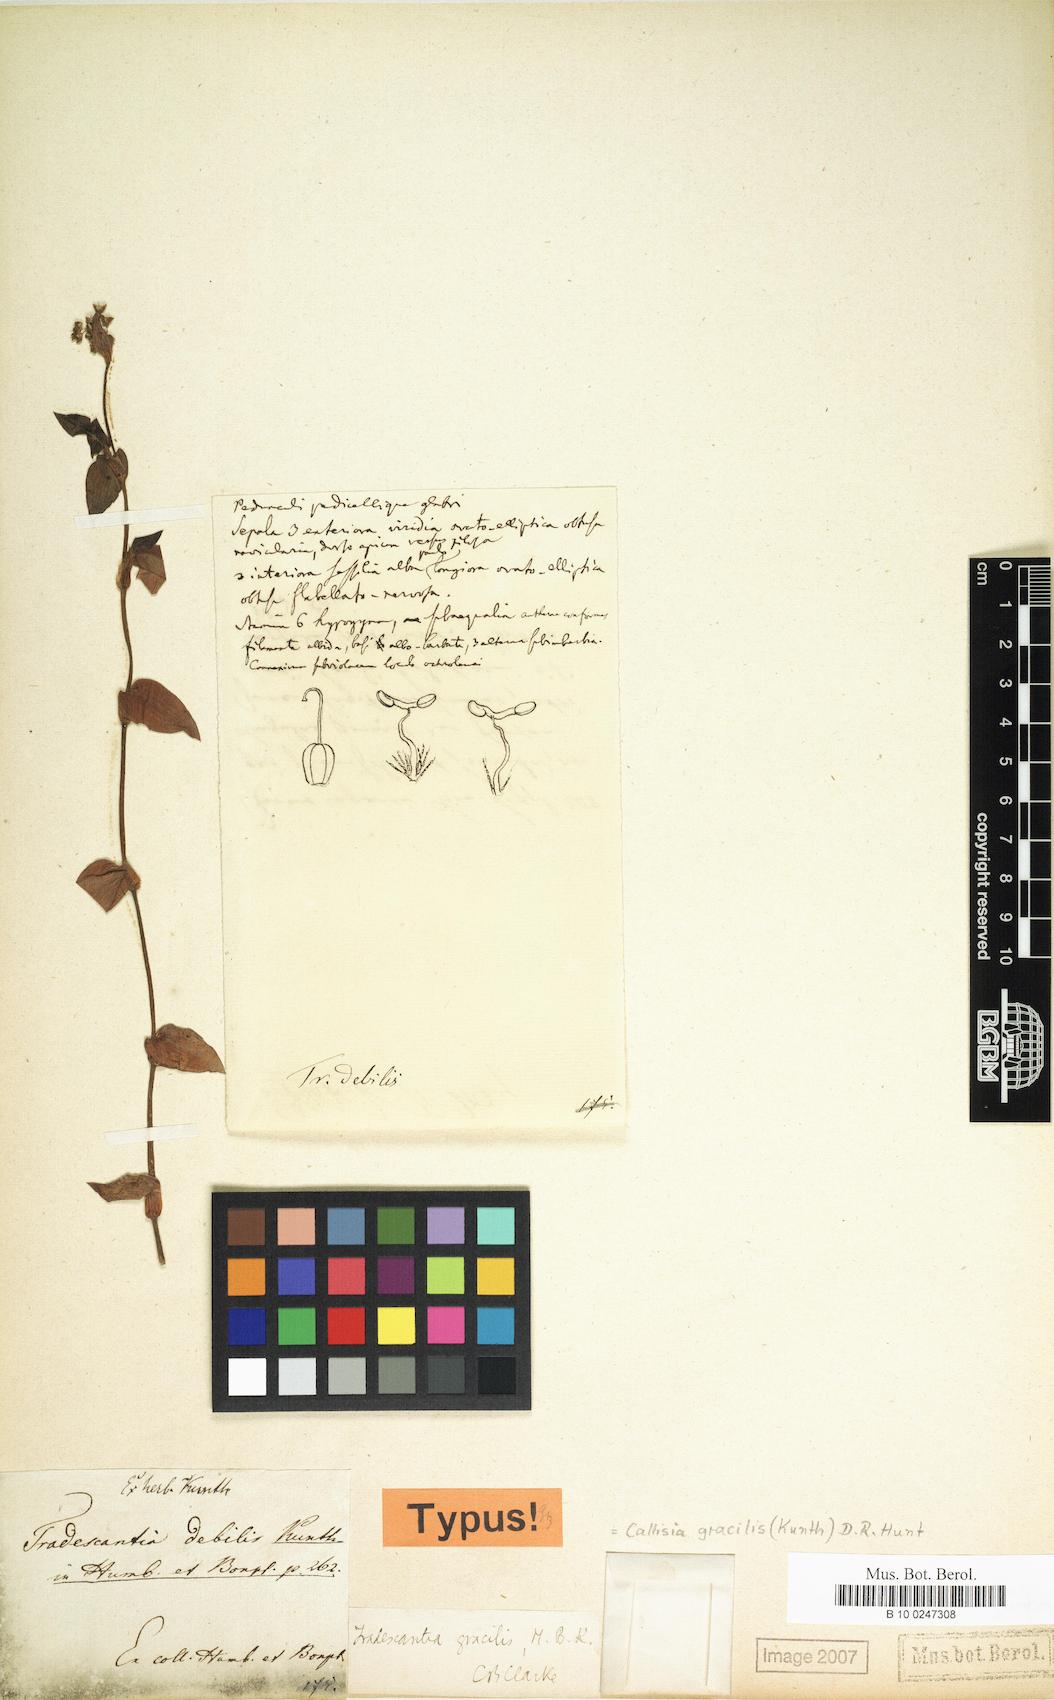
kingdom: Plantae
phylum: Tracheophyta
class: Liliopsida
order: Commelinales
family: Commelinaceae
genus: Callisia
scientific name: Callisia gracilis
